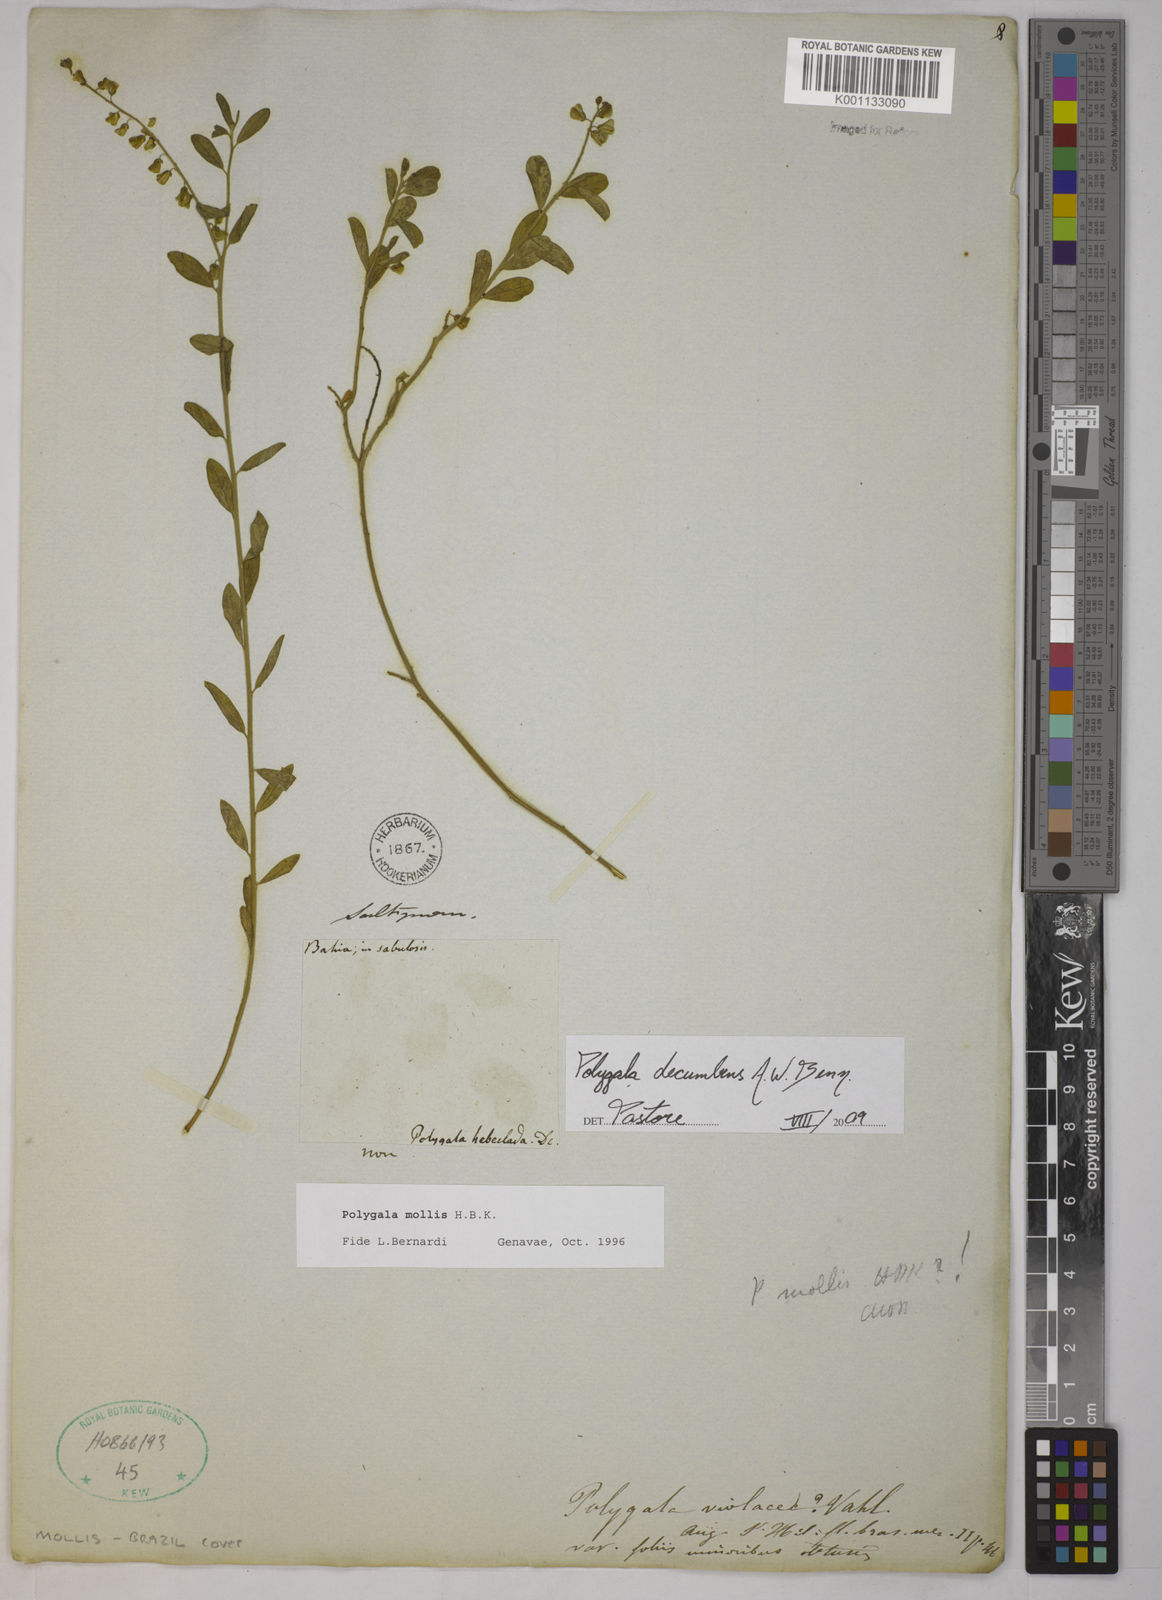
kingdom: Plantae
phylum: Tracheophyta
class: Magnoliopsida
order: Fabales
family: Polygalaceae
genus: Asemeia
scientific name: Asemeia ovata
